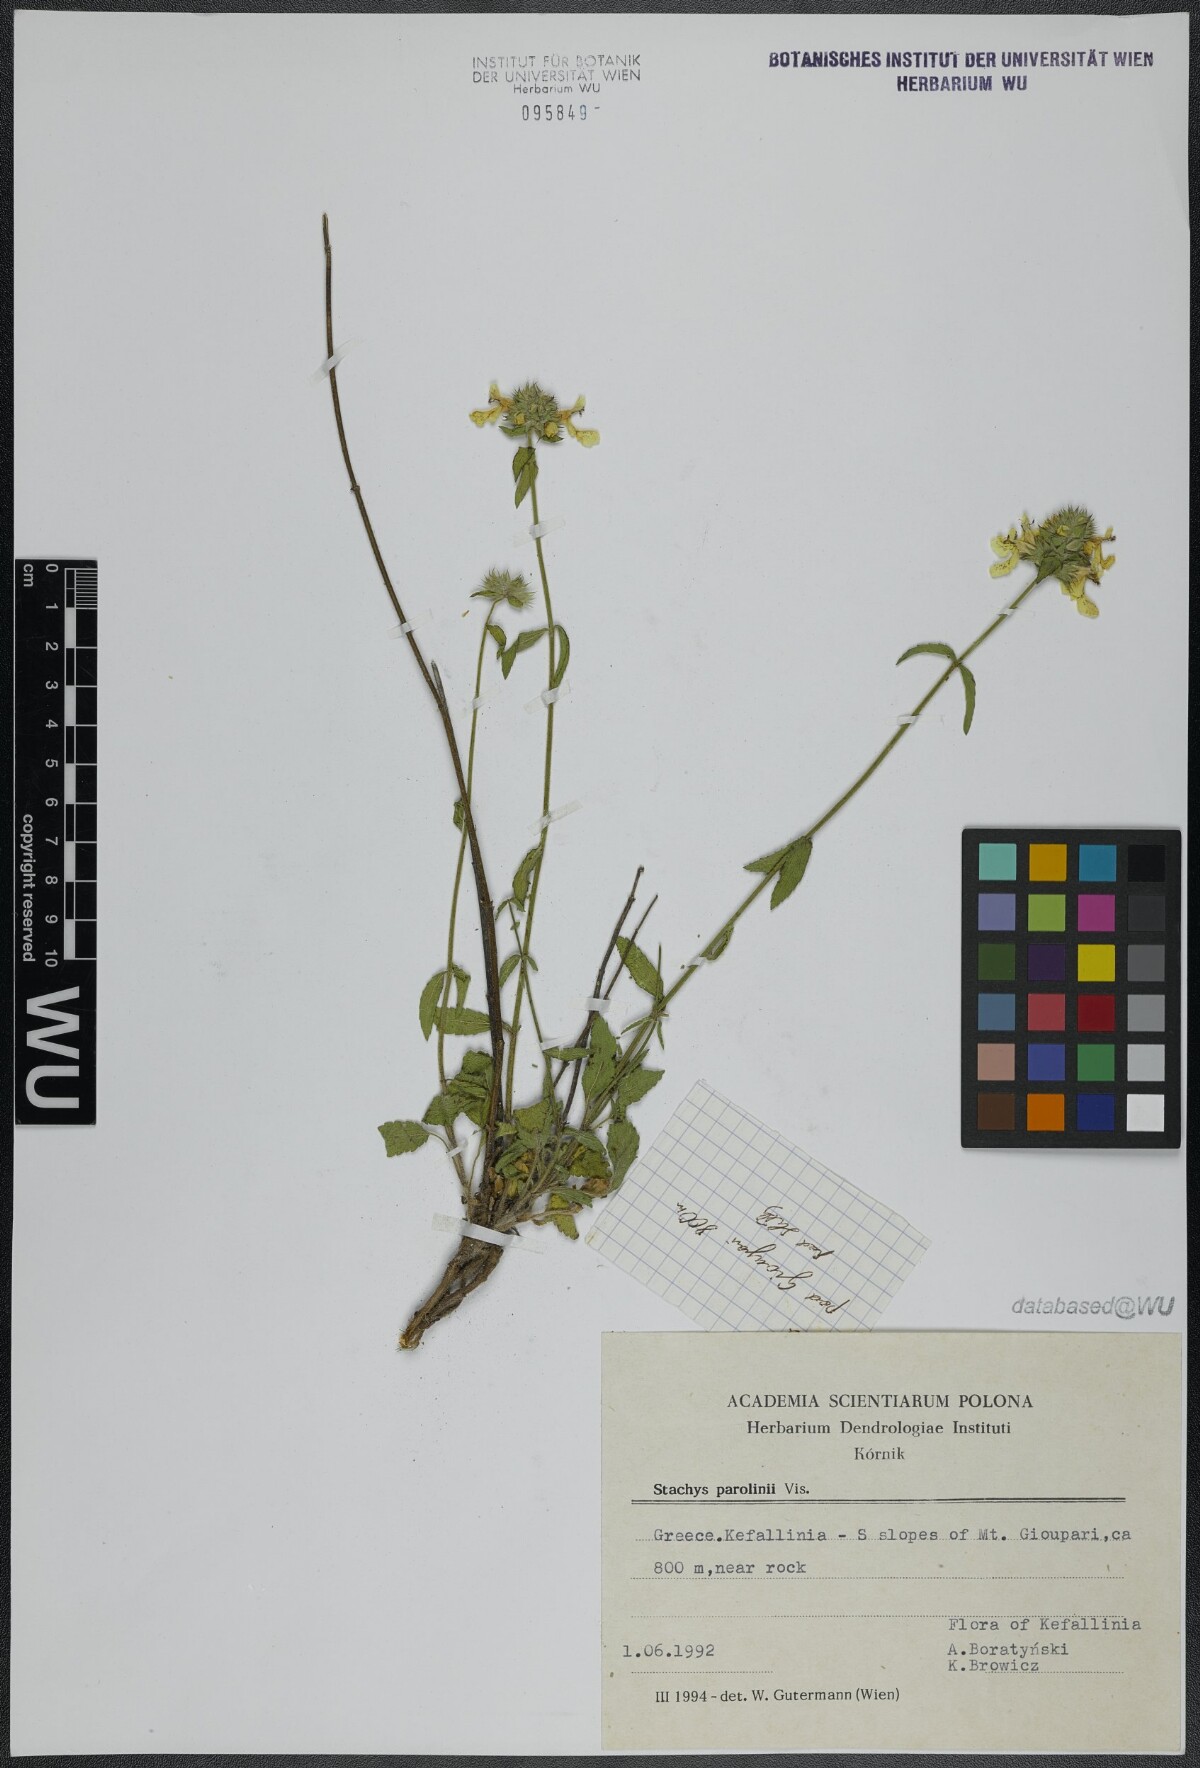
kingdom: Plantae
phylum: Tracheophyta
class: Magnoliopsida
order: Lamiales
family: Lamiaceae
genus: Stachys
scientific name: Stachys parolinii
